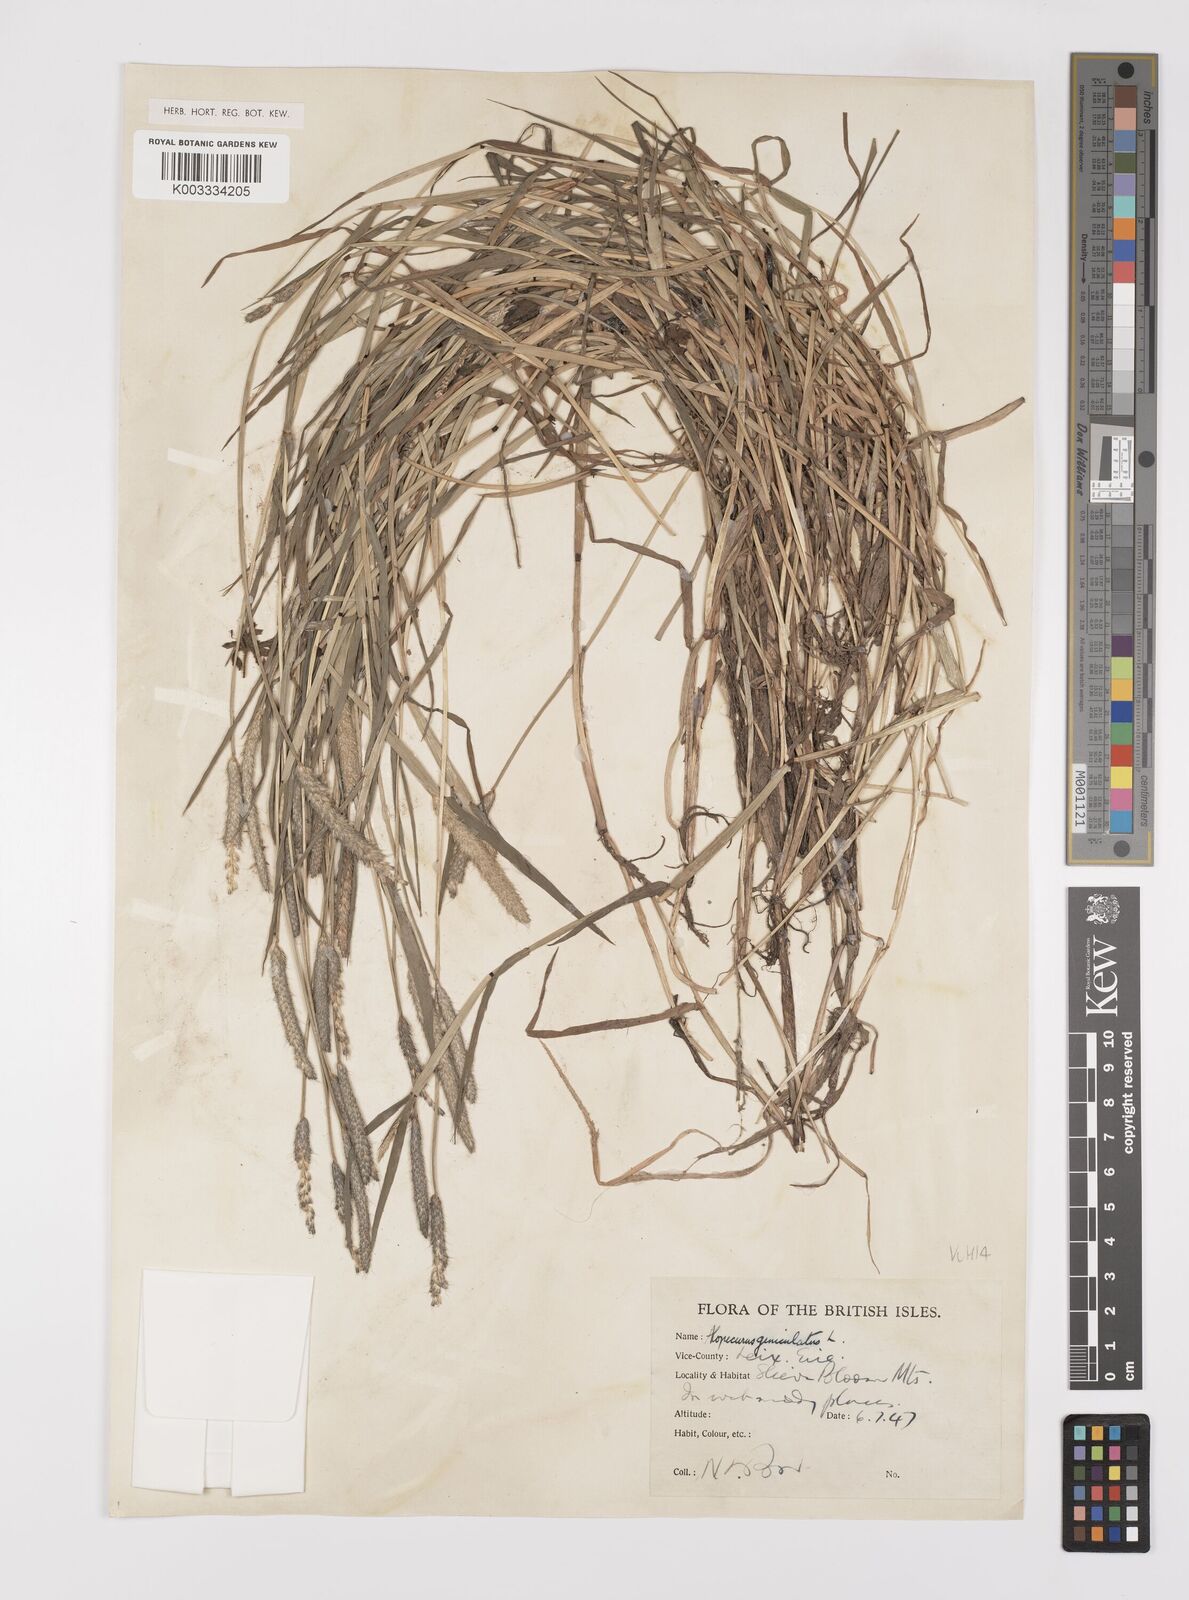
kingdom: Plantae
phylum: Tracheophyta
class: Liliopsida
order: Poales
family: Poaceae
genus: Alopecurus
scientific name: Alopecurus geniculatus
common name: Water foxtail
